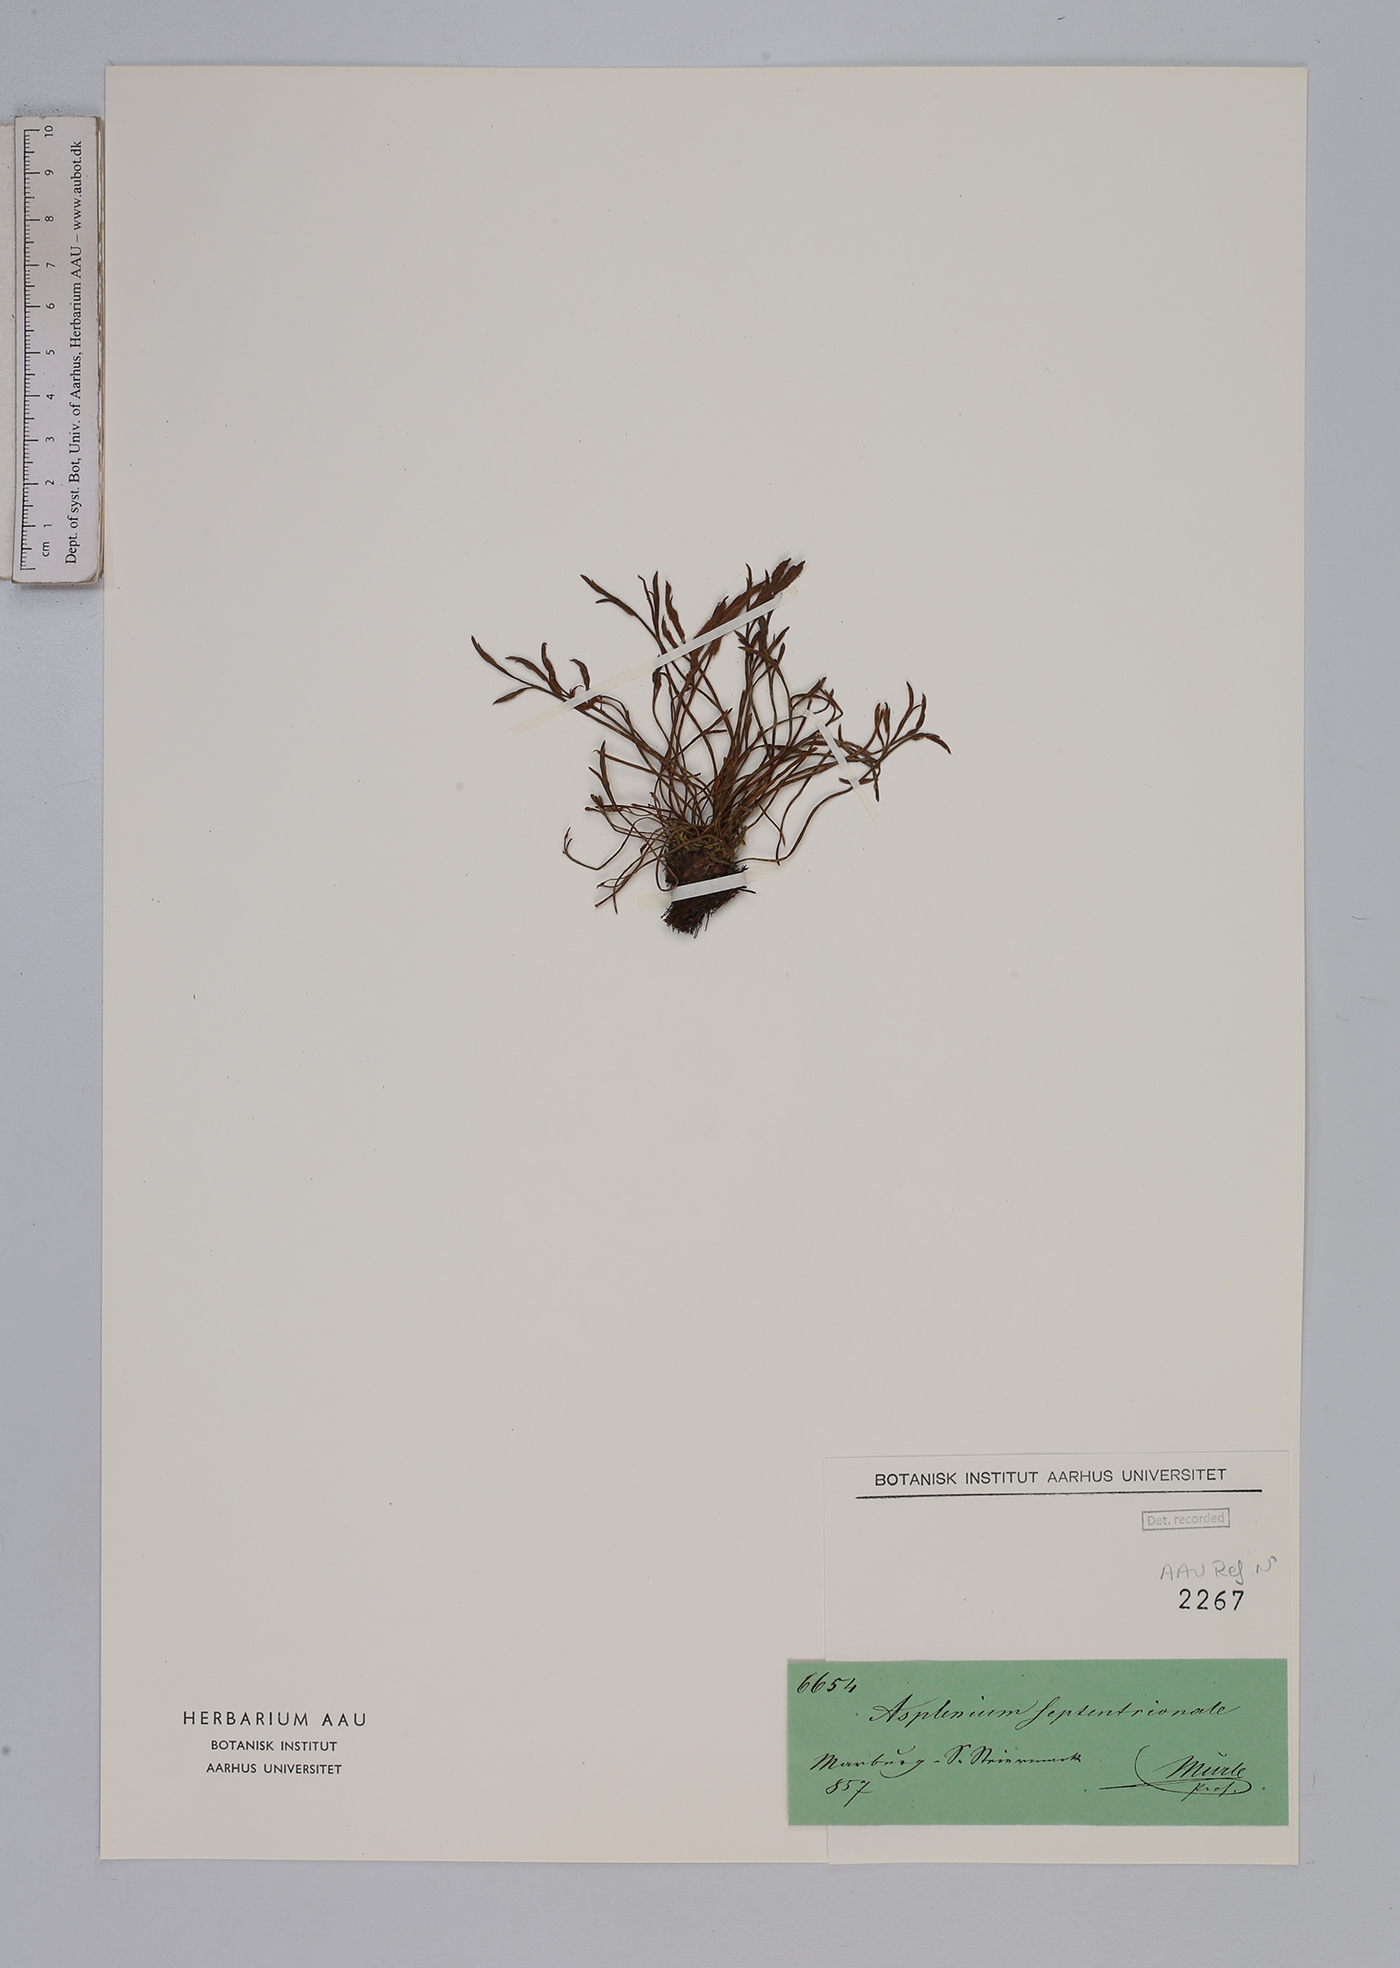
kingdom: Plantae
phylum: Tracheophyta
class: Polypodiopsida
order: Polypodiales
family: Aspleniaceae
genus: Asplenium
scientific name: Asplenium septentrionale
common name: Forked spleenwort
